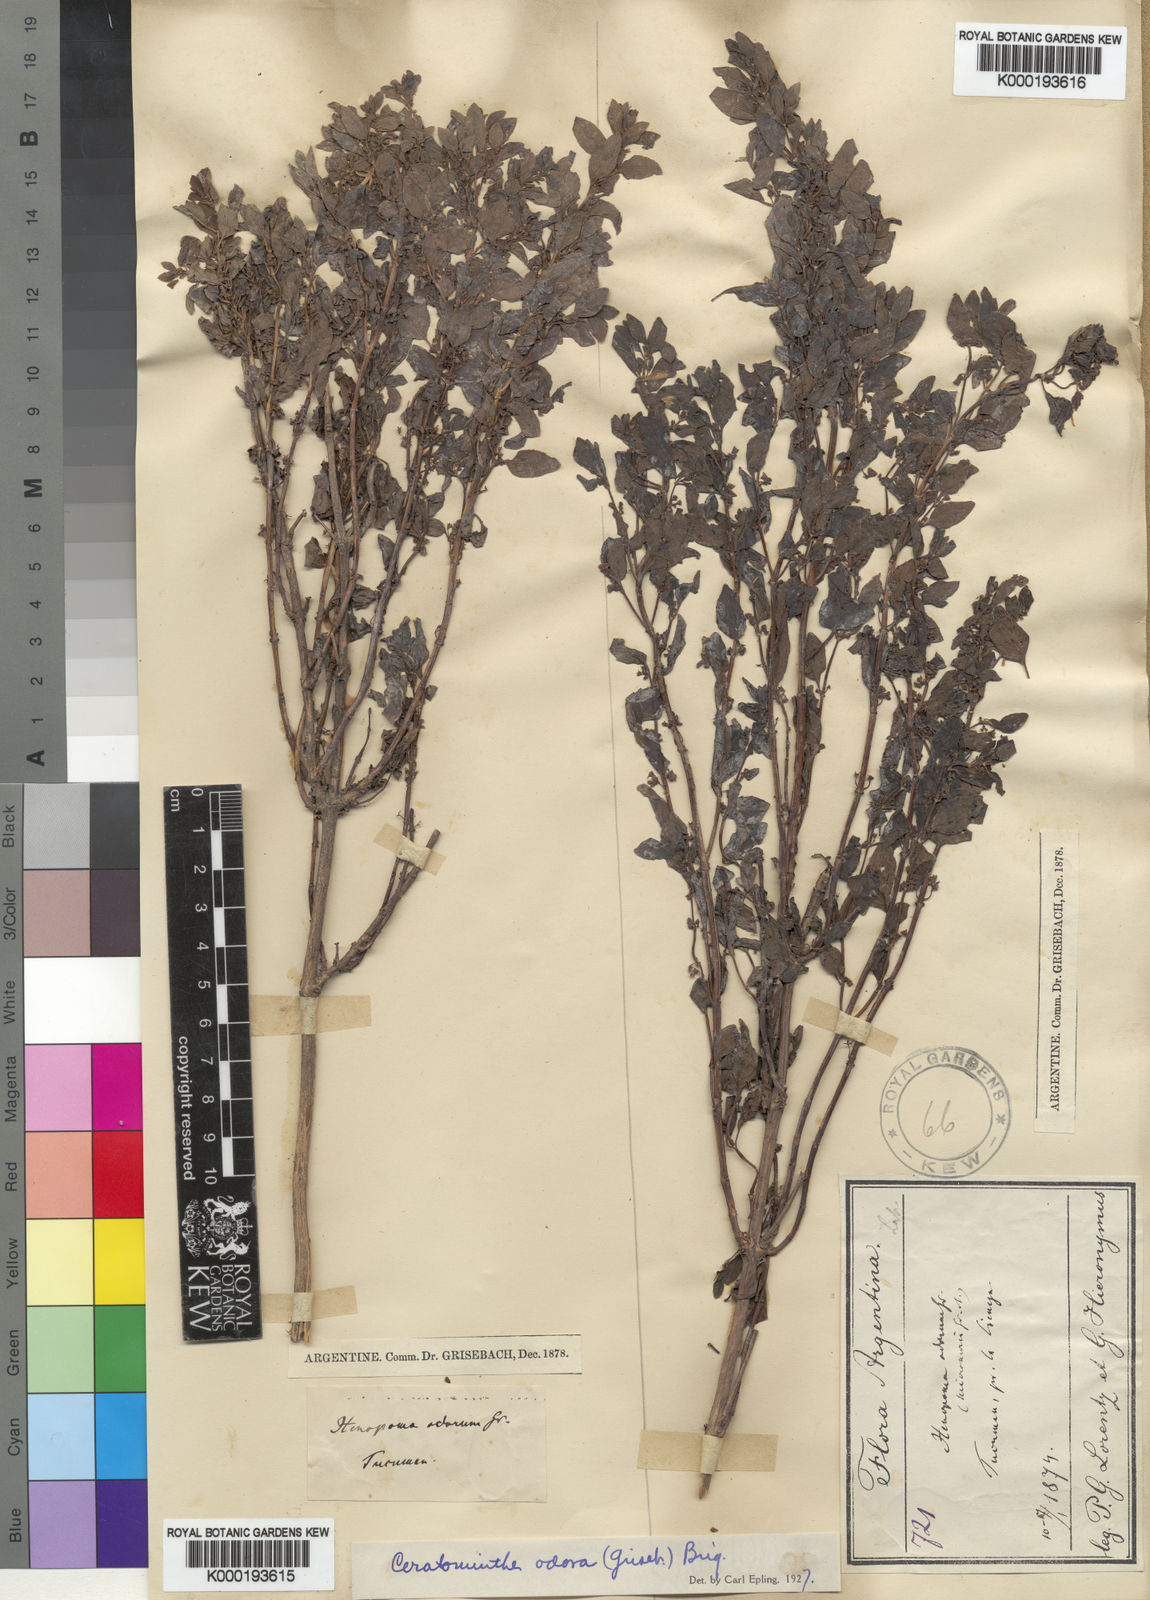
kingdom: Plantae
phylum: Tracheophyta
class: Magnoliopsida
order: Lamiales
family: Lamiaceae
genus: Clinopodium
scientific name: Clinopodium odorum
